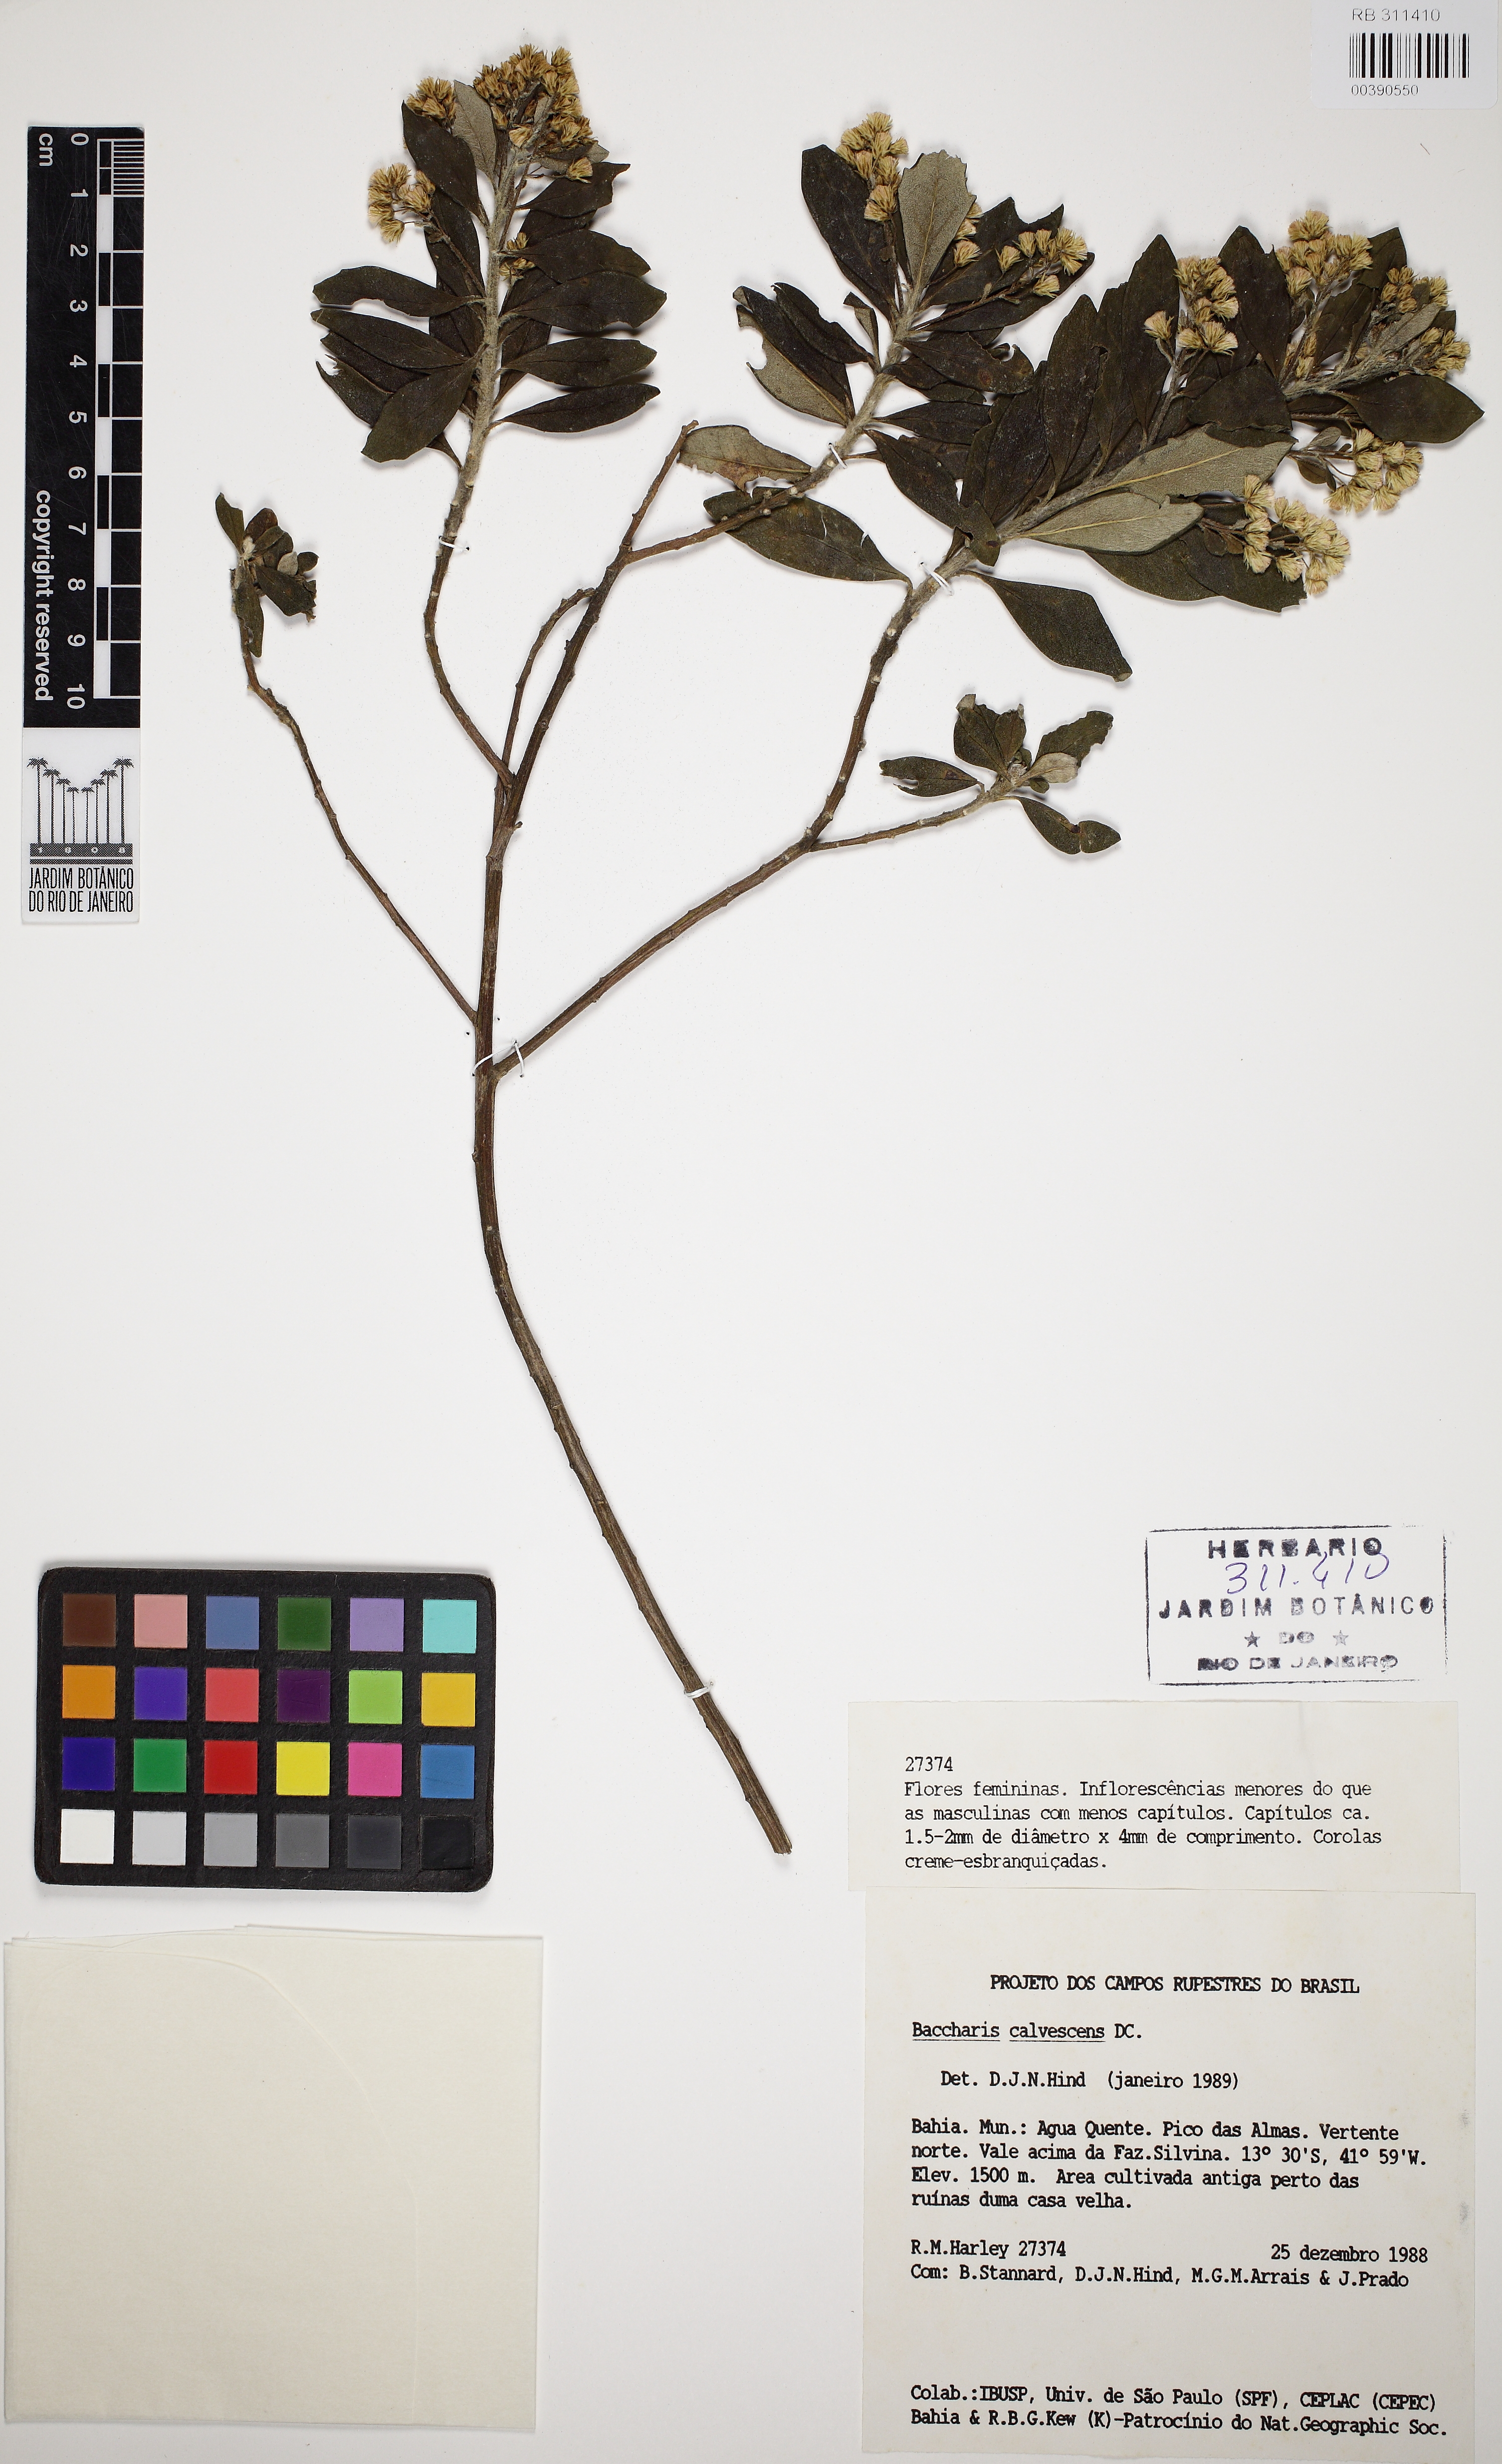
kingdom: Plantae
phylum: Tracheophyta
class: Magnoliopsida
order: Asterales
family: Asteraceae
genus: Baccharis
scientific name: Baccharis calvescens
